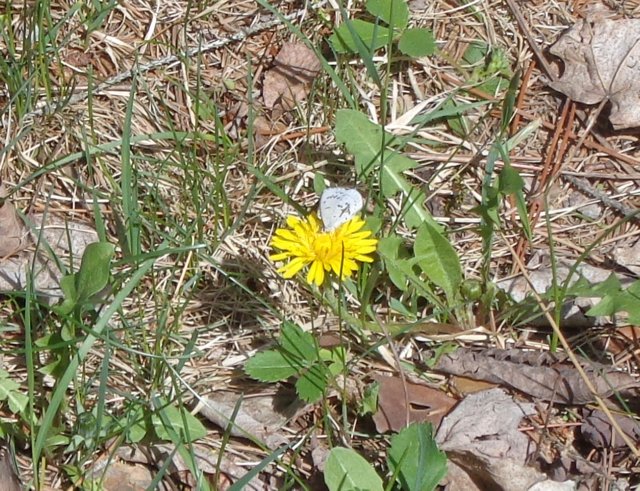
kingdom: Animalia
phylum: Arthropoda
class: Insecta
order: Lepidoptera
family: Lycaenidae
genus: Celastrina
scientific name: Celastrina lucia
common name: Northern Spring Azure
